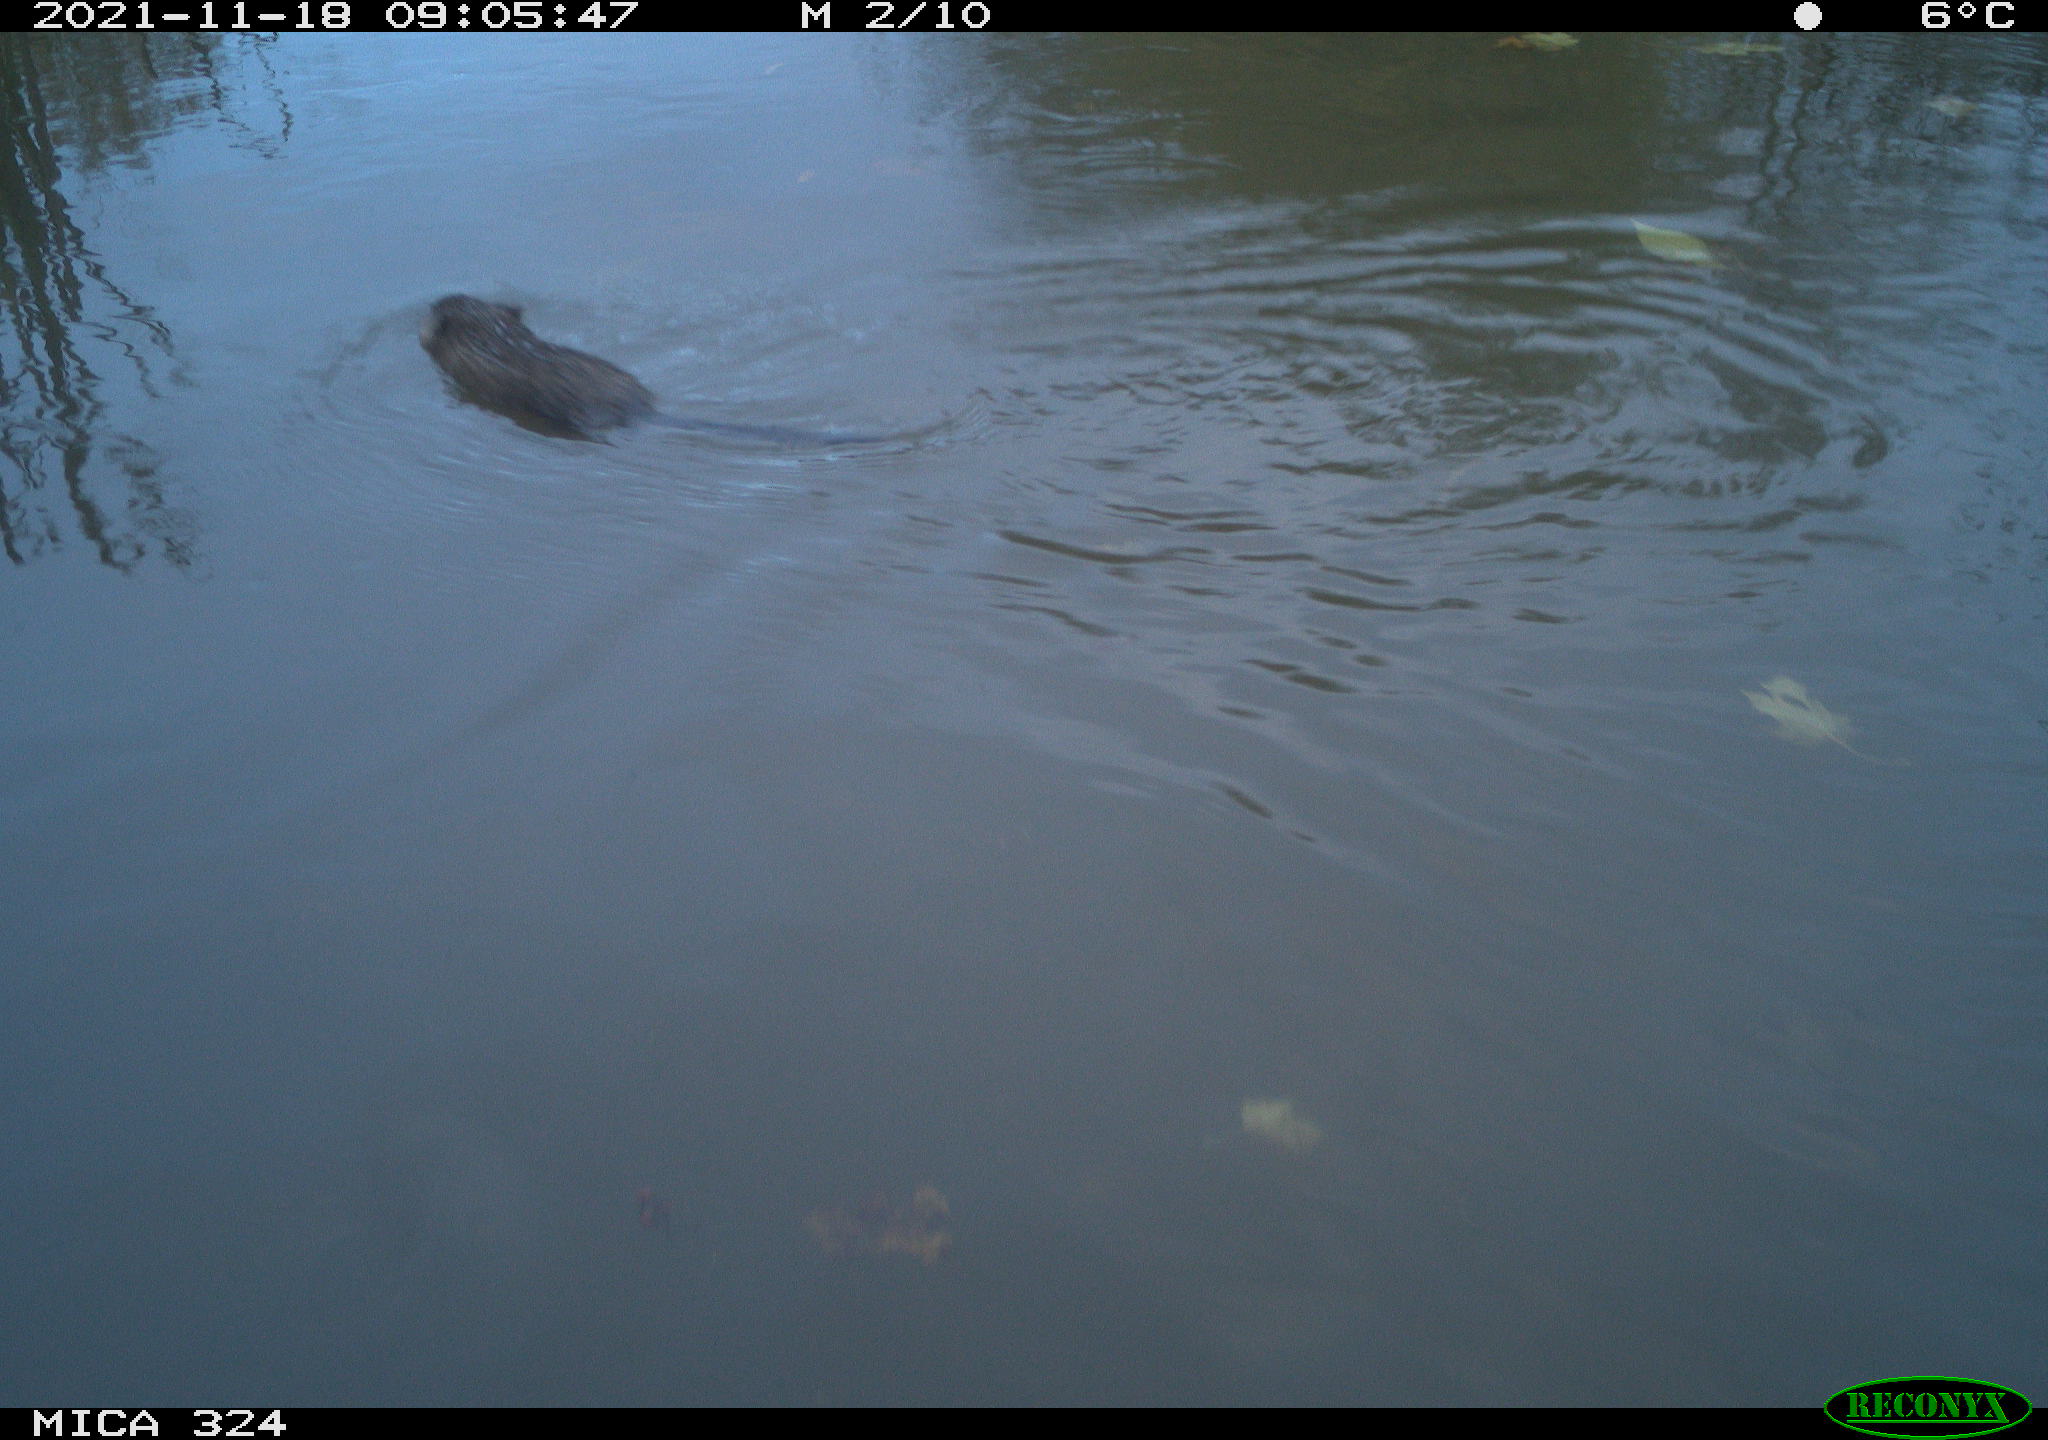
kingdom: Animalia
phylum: Chordata
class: Mammalia
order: Rodentia
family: Cricetidae
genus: Ondatra
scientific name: Ondatra zibethicus
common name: Muskrat
